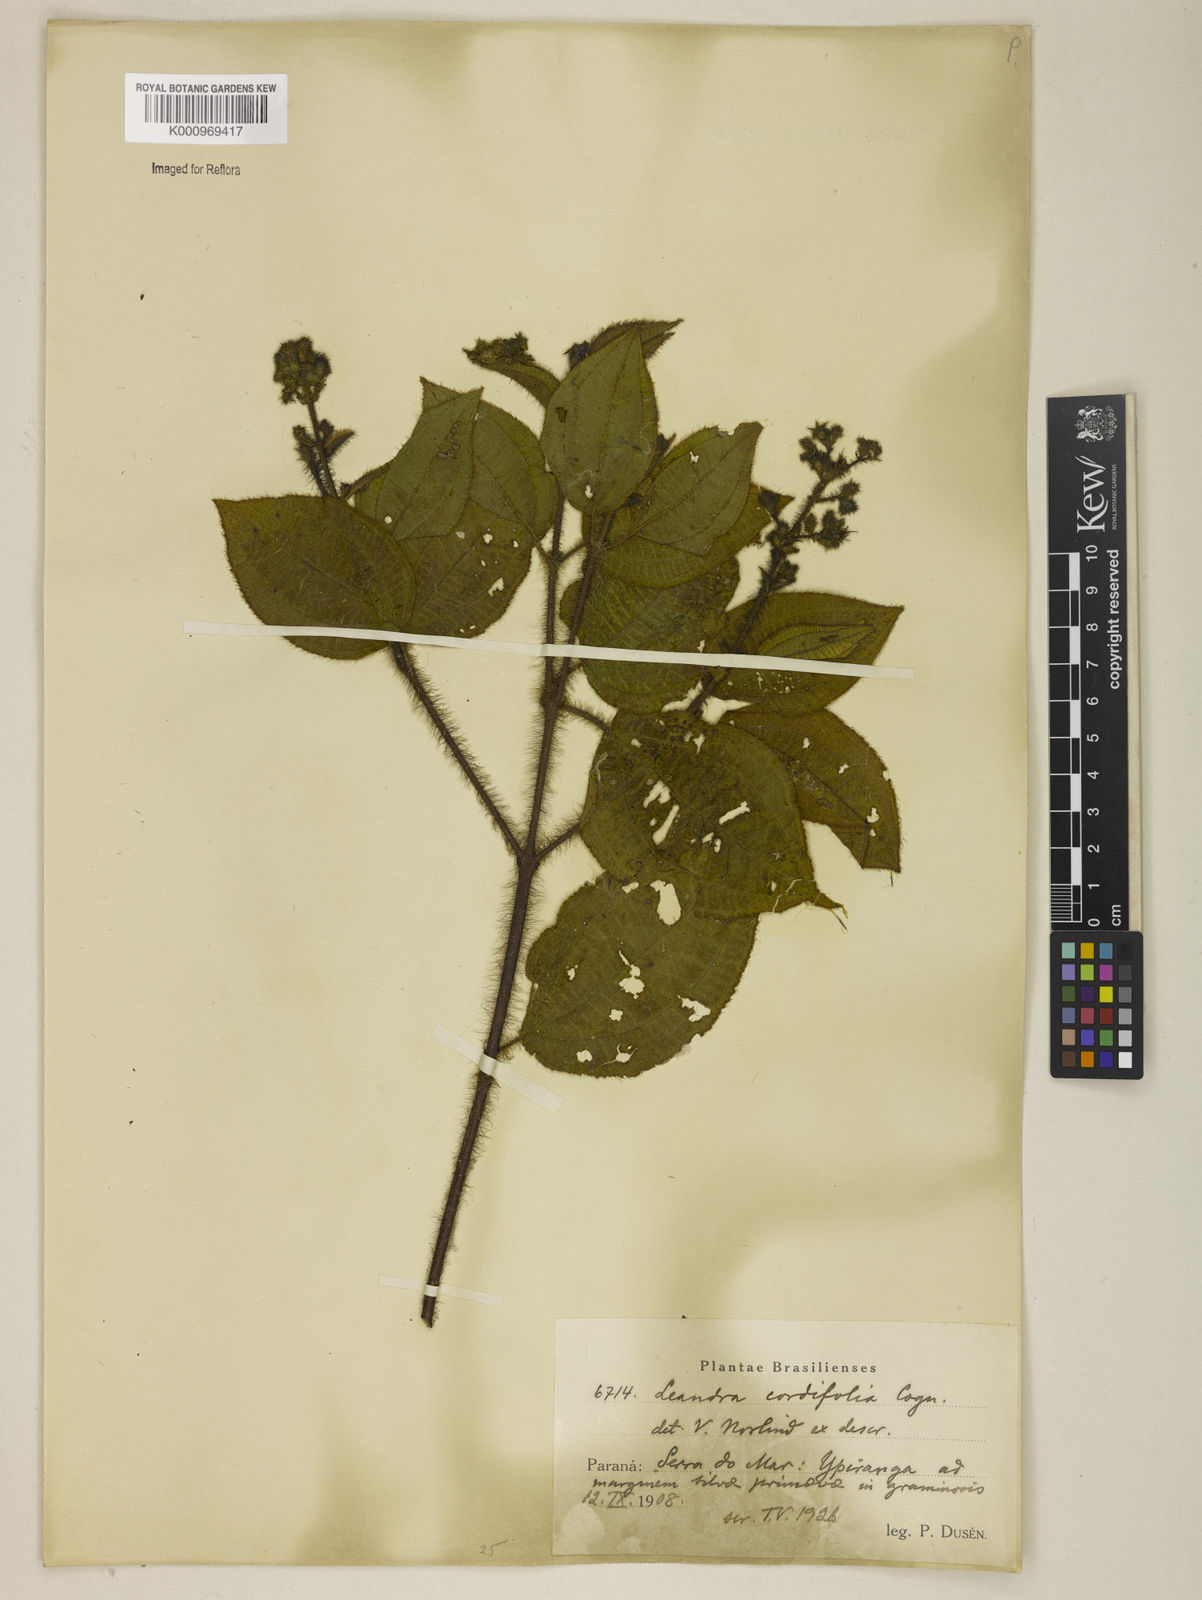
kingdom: Plantae
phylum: Tracheophyta
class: Magnoliopsida
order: Myrtales
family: Melastomataceae
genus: Miconia
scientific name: Miconia leacordifolia
